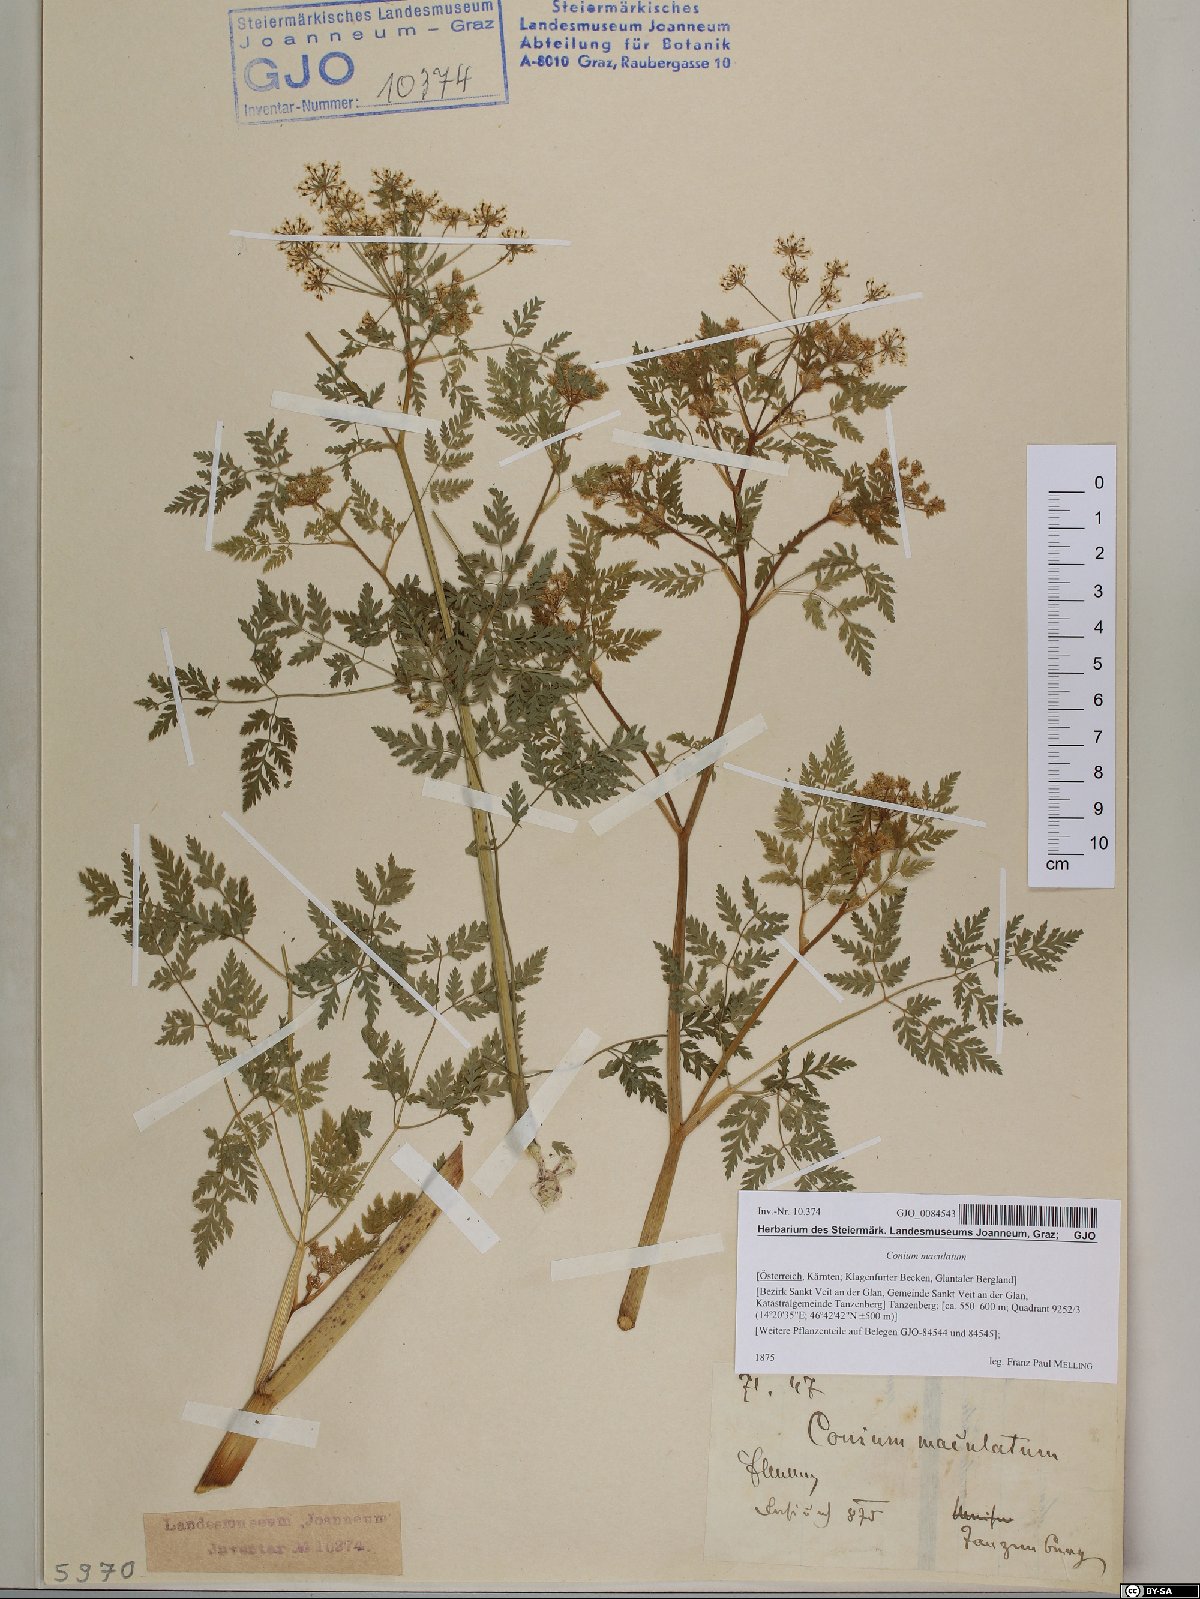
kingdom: Plantae
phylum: Tracheophyta
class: Magnoliopsida
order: Apiales
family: Apiaceae
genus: Conium
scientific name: Conium maculatum
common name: Hemlock
